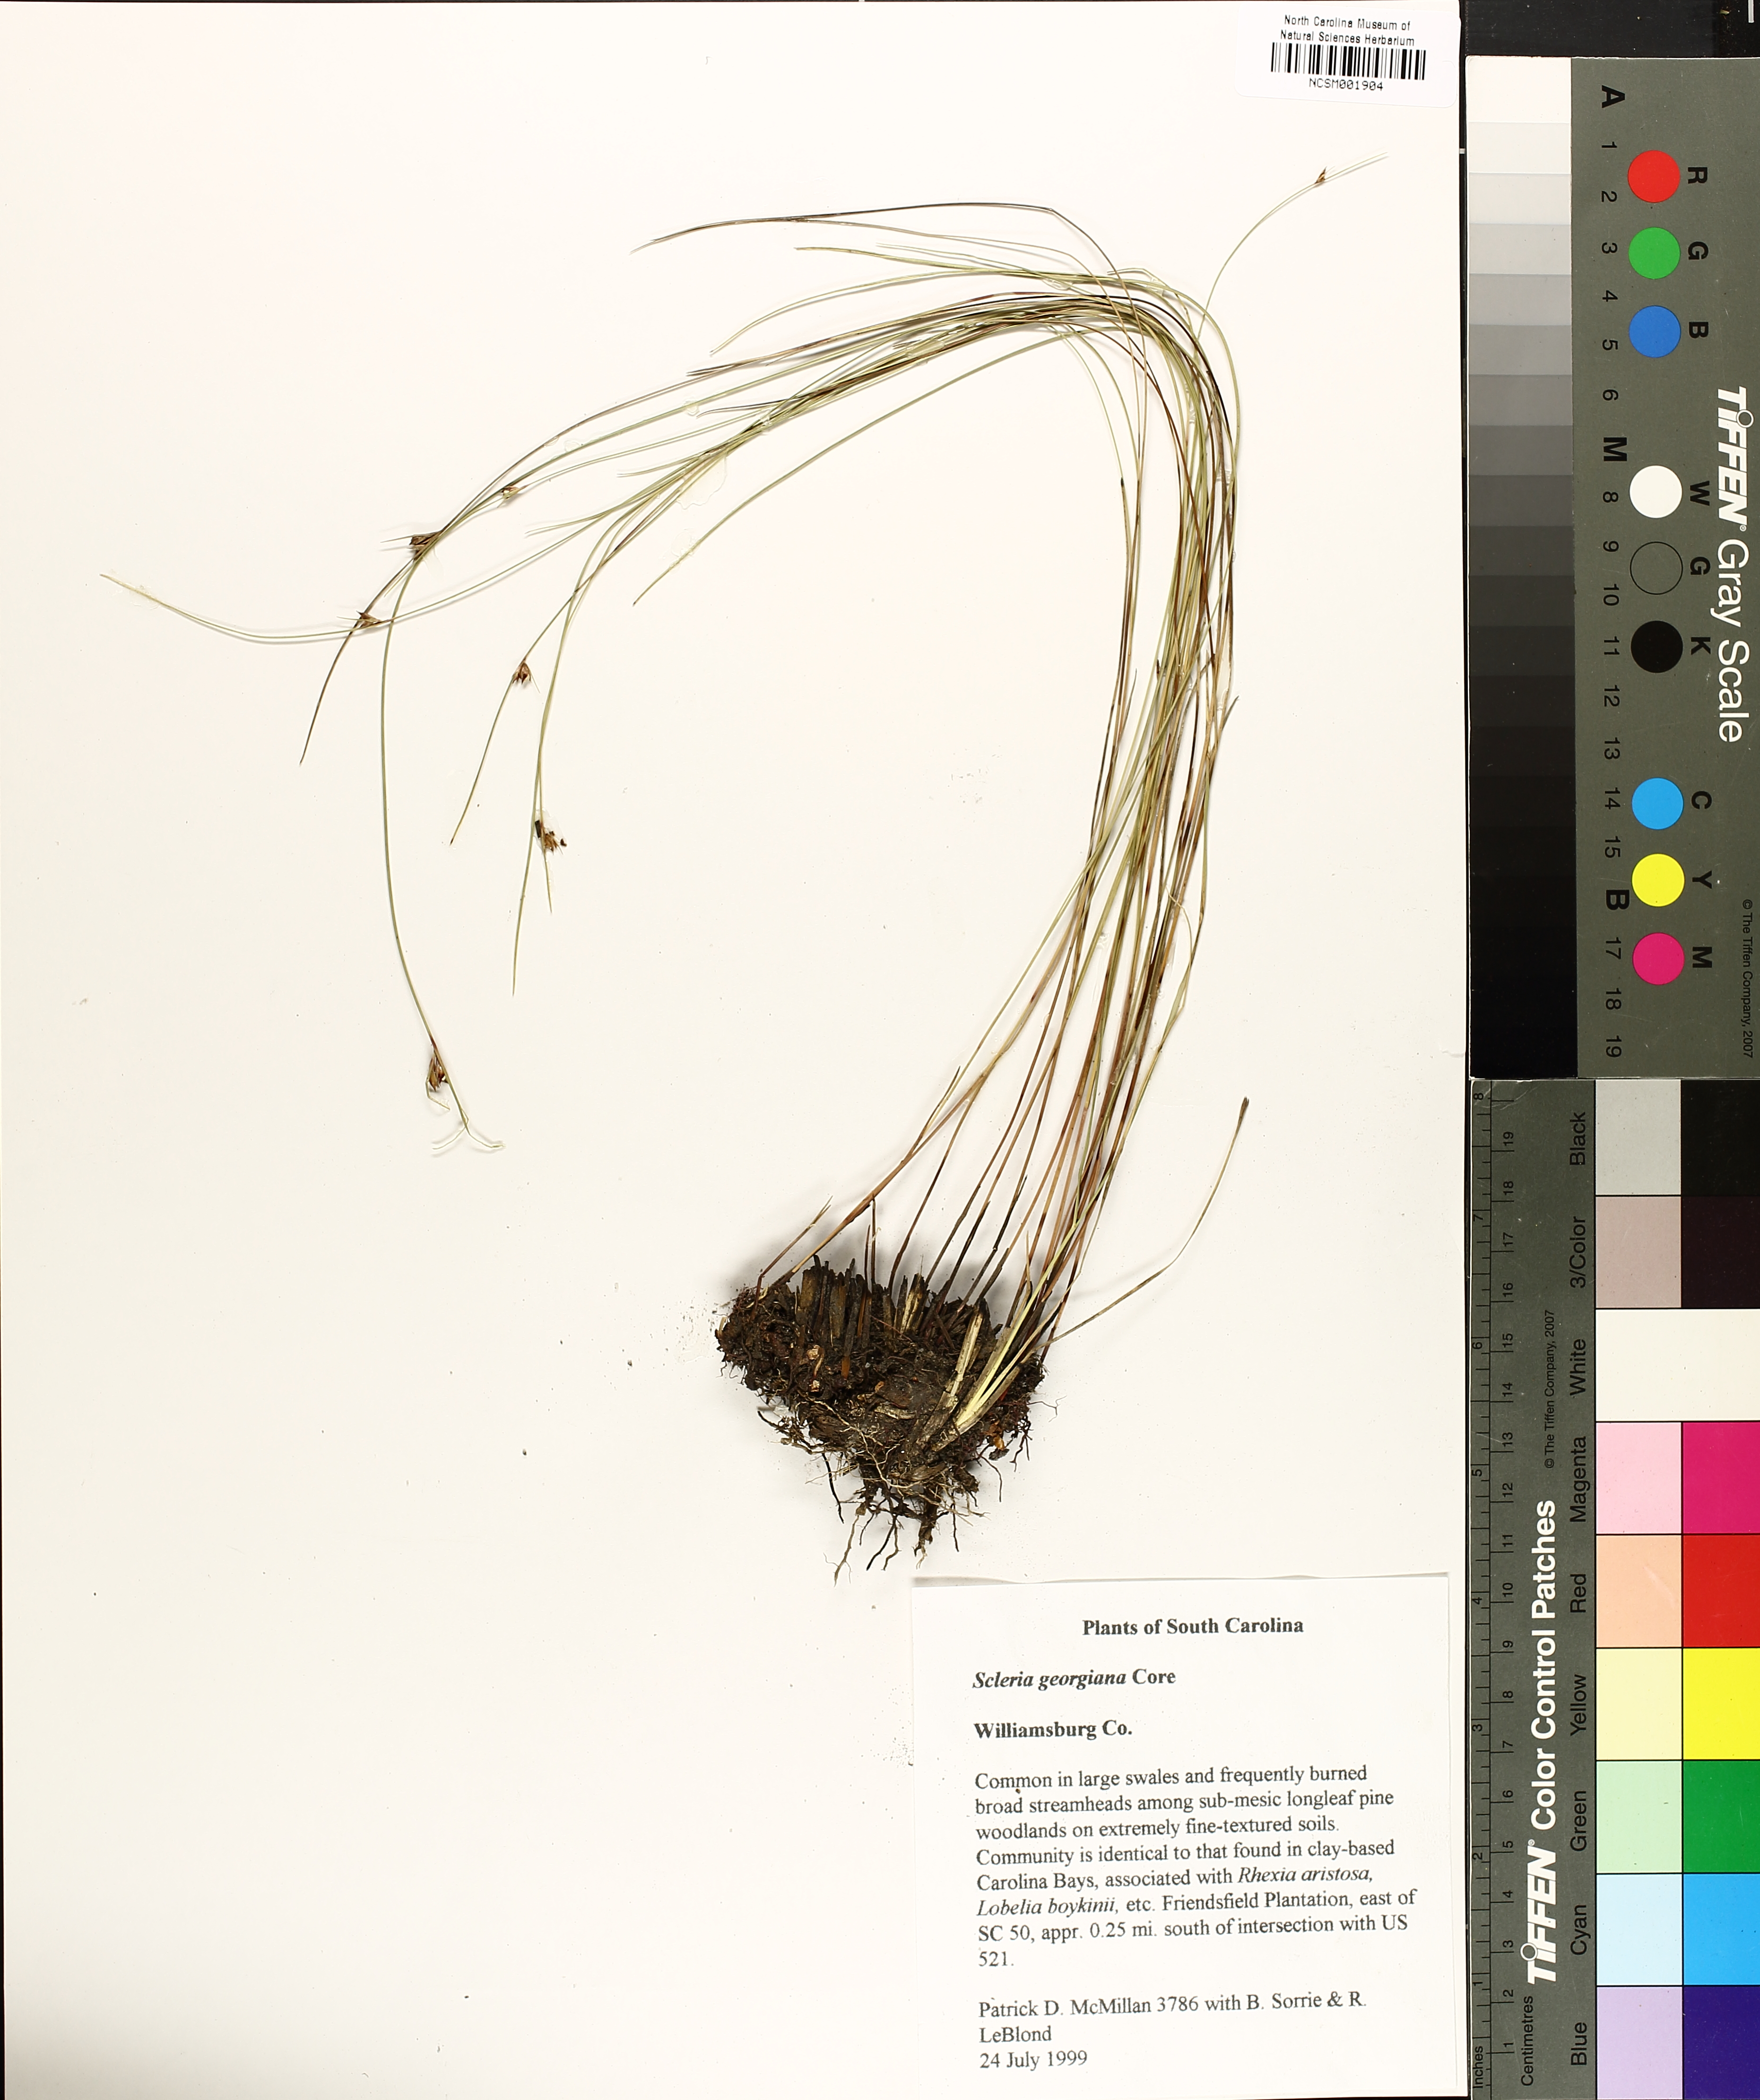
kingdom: Plantae
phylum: Tracheophyta
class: Liliopsida
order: Poales
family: Cyperaceae
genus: Scleria
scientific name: Scleria georgiana
